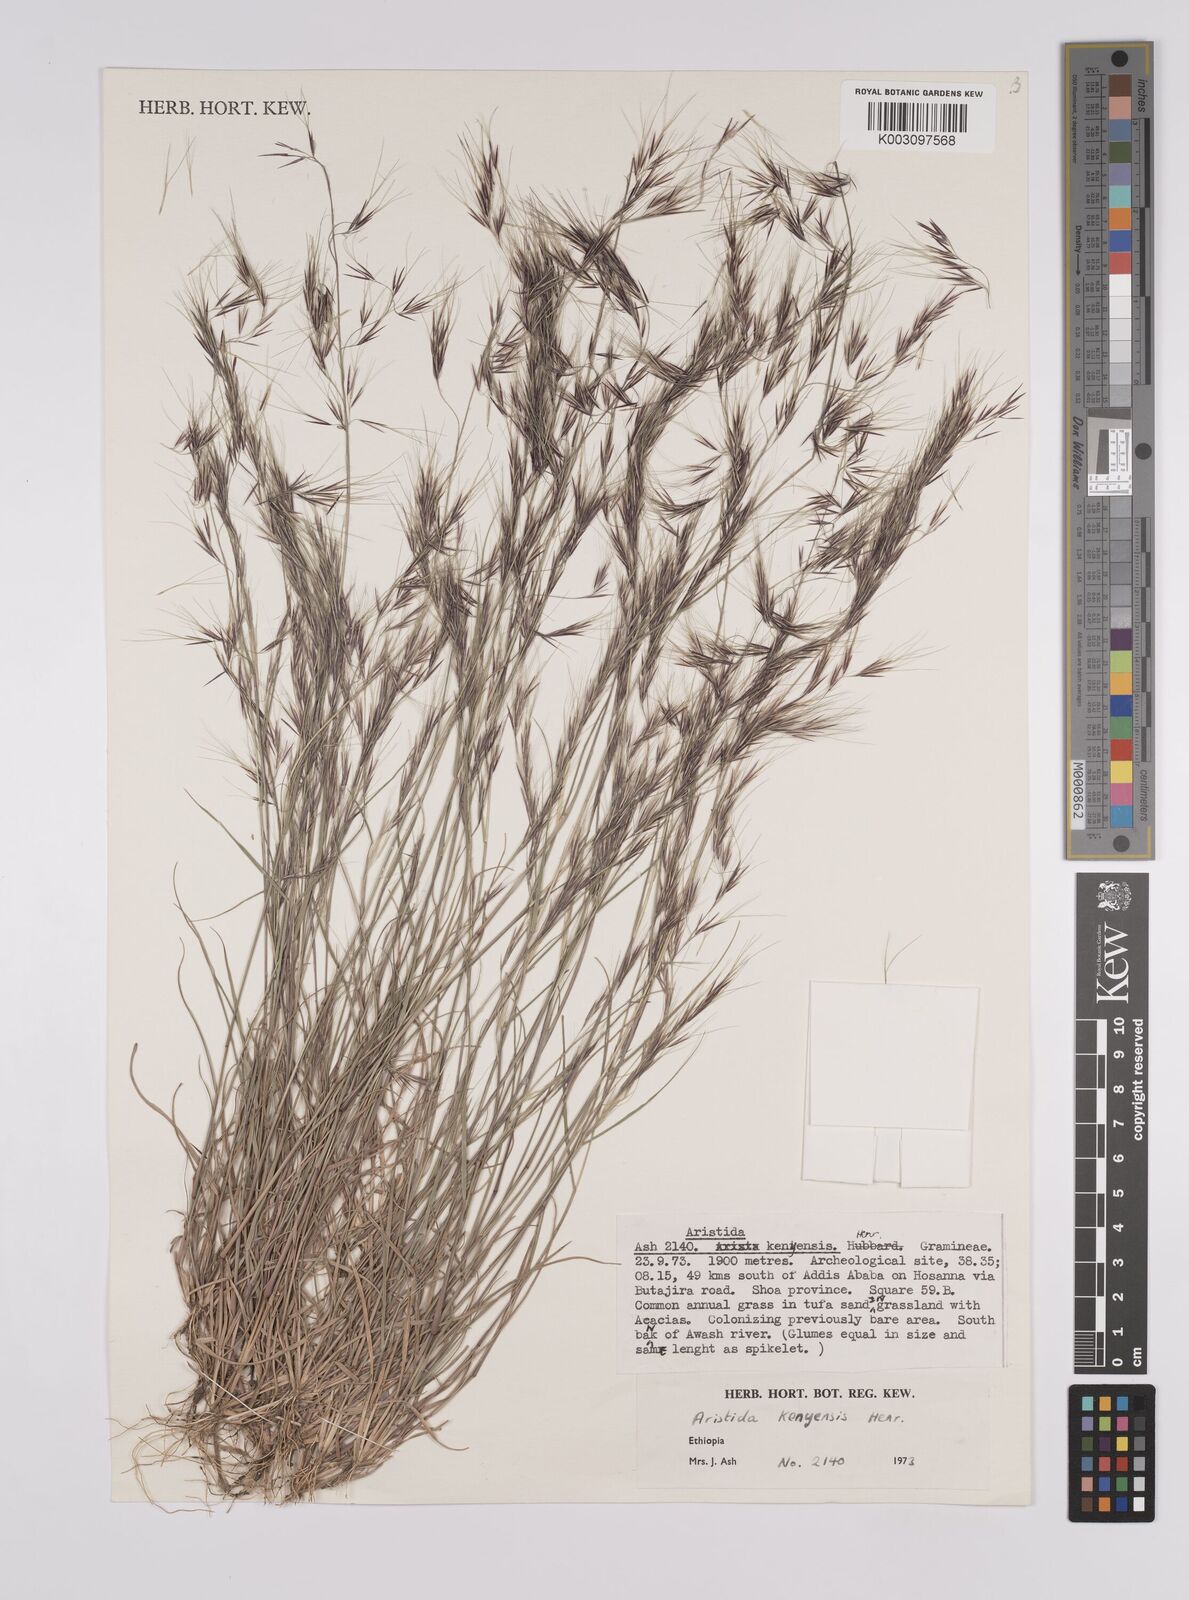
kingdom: Plantae
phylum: Tracheophyta
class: Liliopsida
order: Poales
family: Poaceae
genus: Aristida
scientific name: Aristida kenyensis
